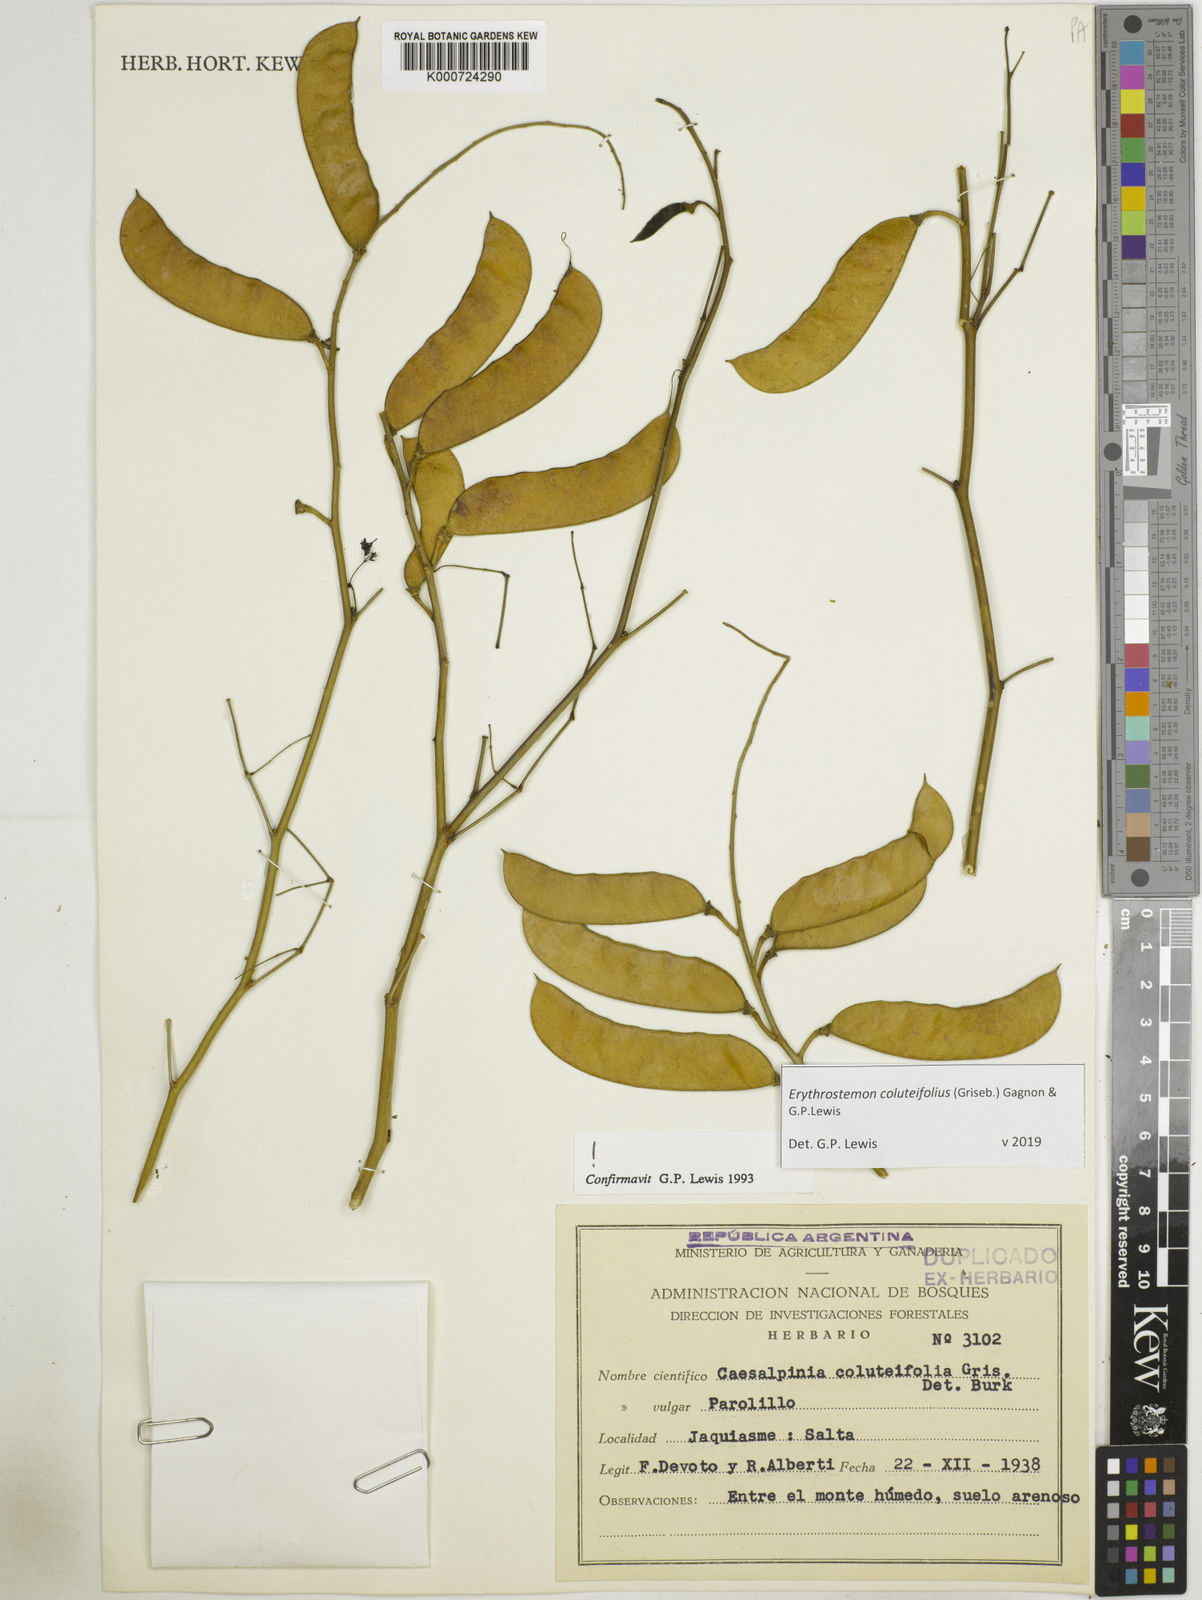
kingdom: Plantae
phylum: Tracheophyta
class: Magnoliopsida
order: Fabales
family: Fabaceae
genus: Erythrostemon
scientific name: Erythrostemon coluteifolius
